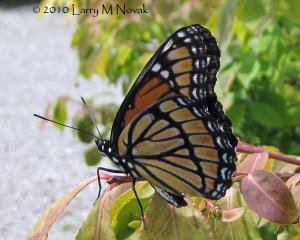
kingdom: Animalia
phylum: Arthropoda
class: Insecta
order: Lepidoptera
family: Nymphalidae
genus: Limenitis
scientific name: Limenitis archippus
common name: Viceroy
